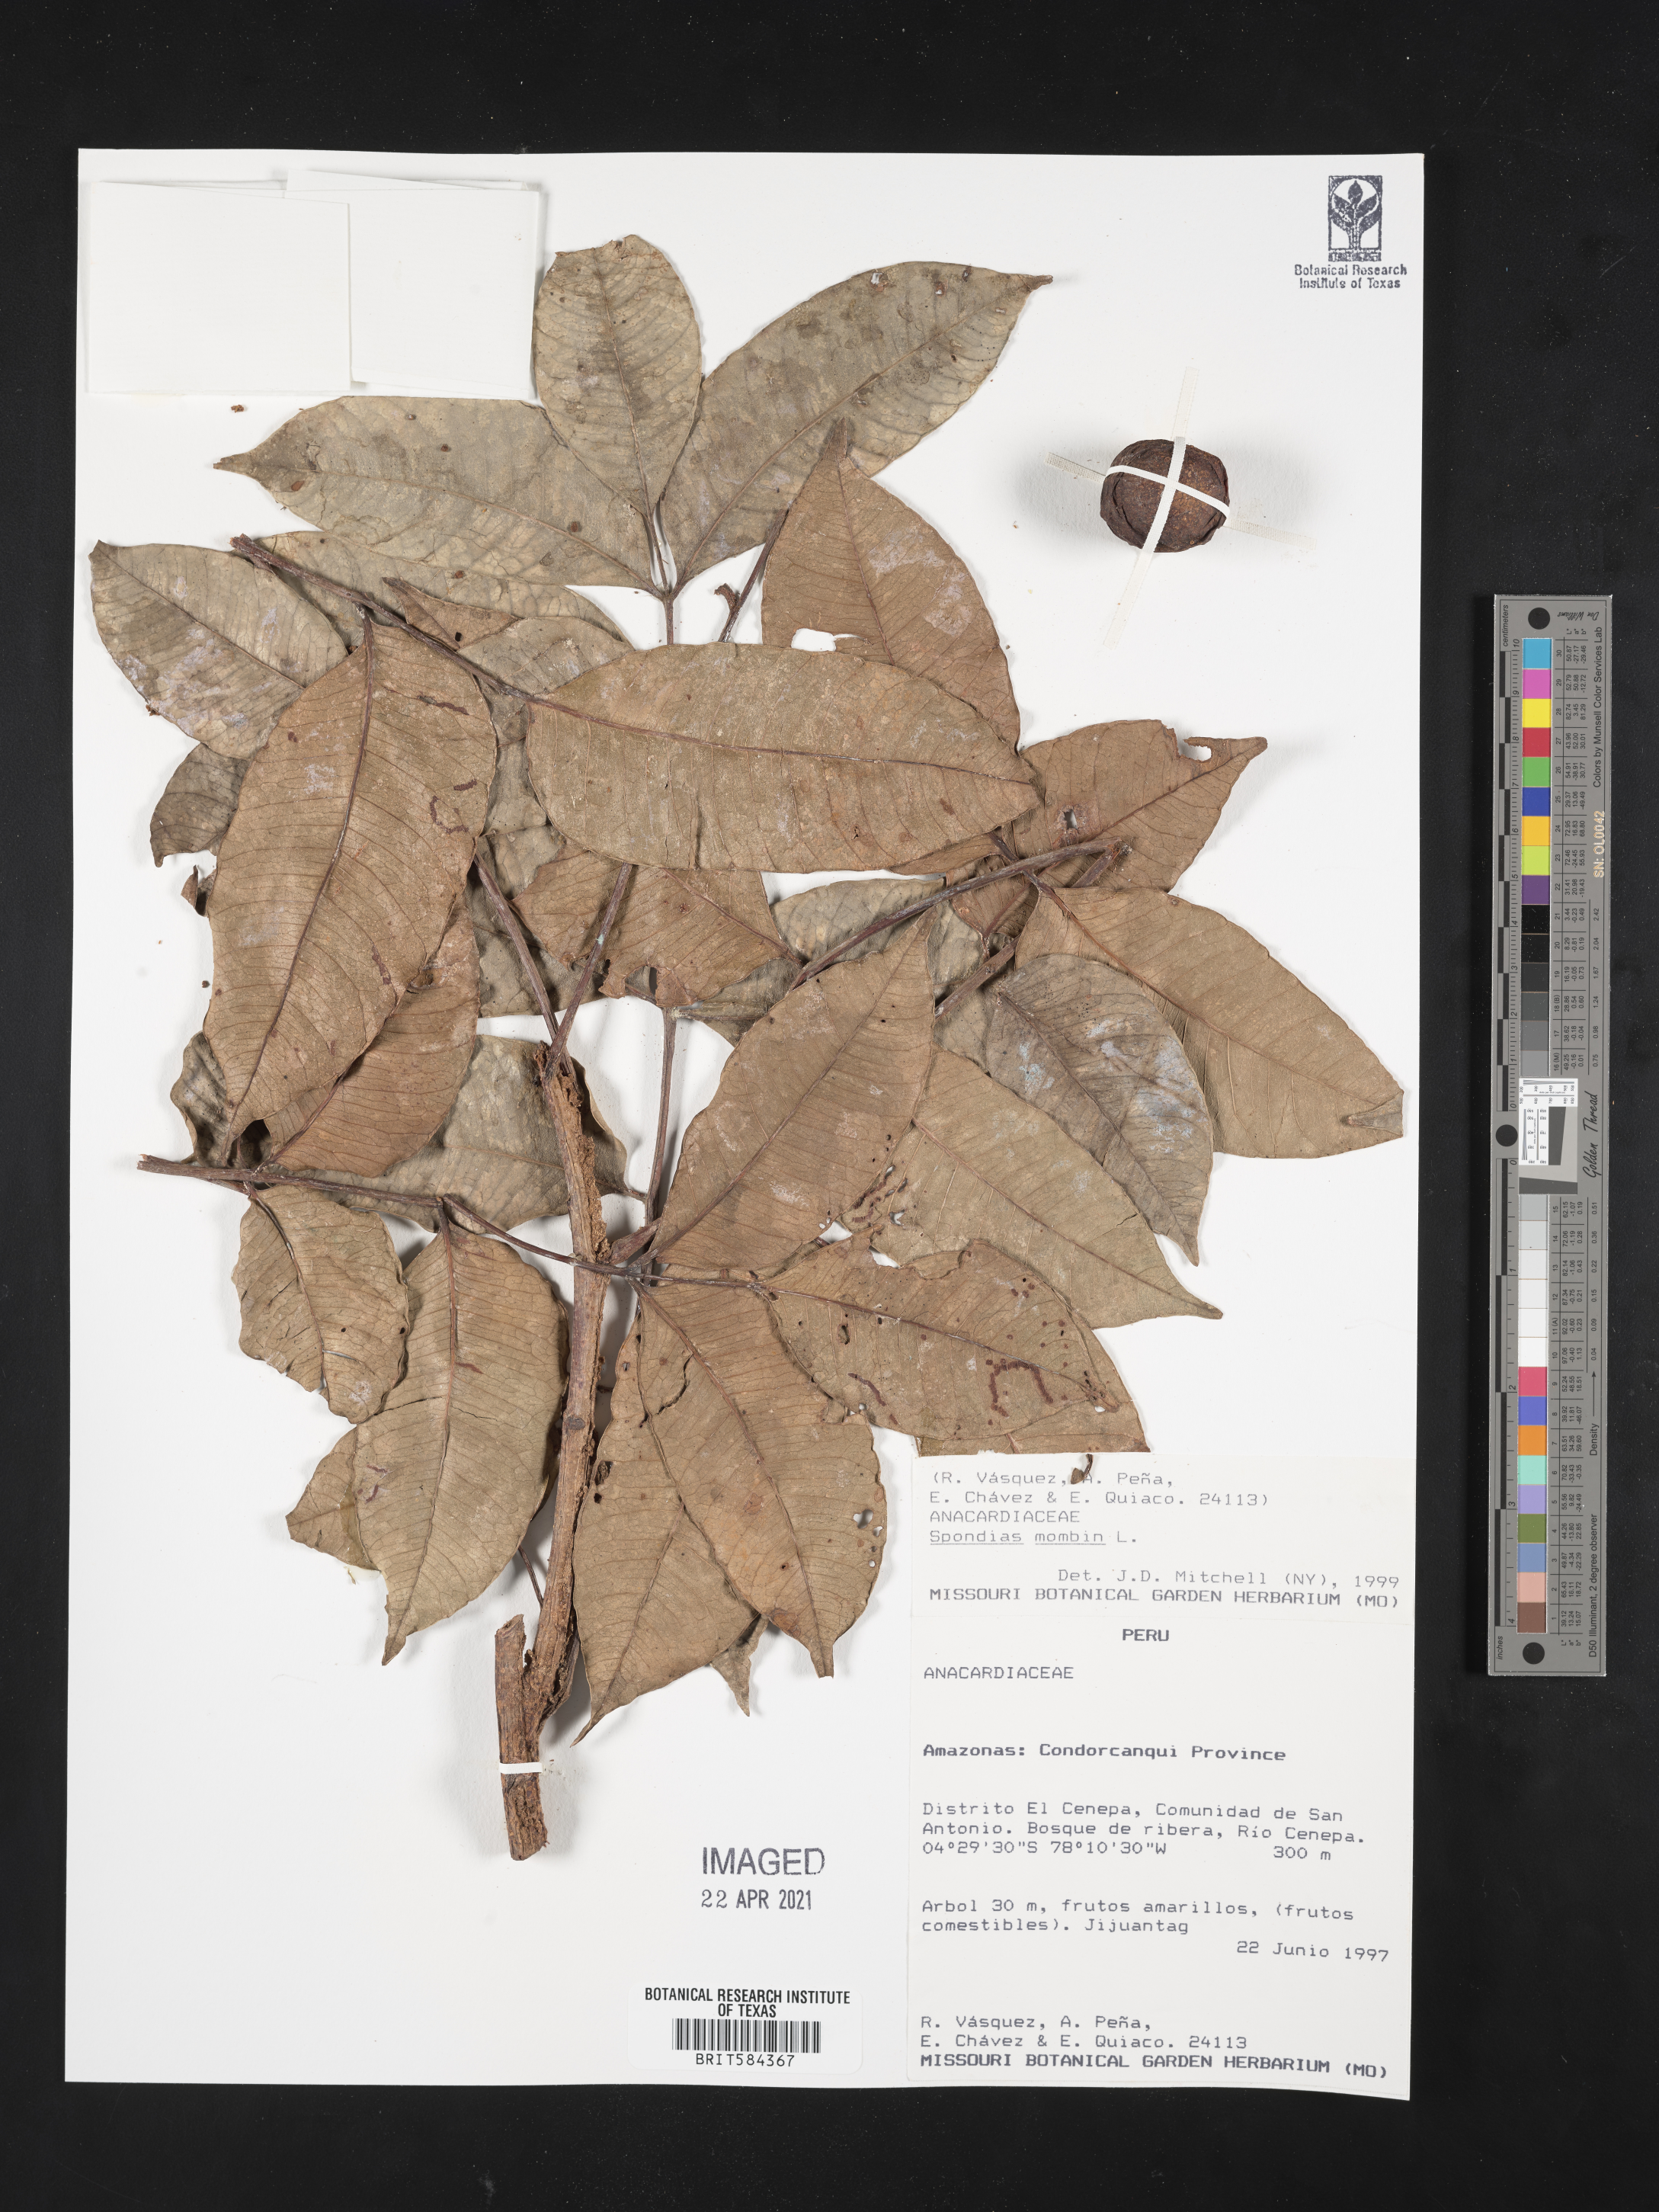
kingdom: Plantae
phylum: Tracheophyta
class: Magnoliopsida
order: Sapindales
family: Anacardiaceae
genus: Spondias
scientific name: Spondias mombin
